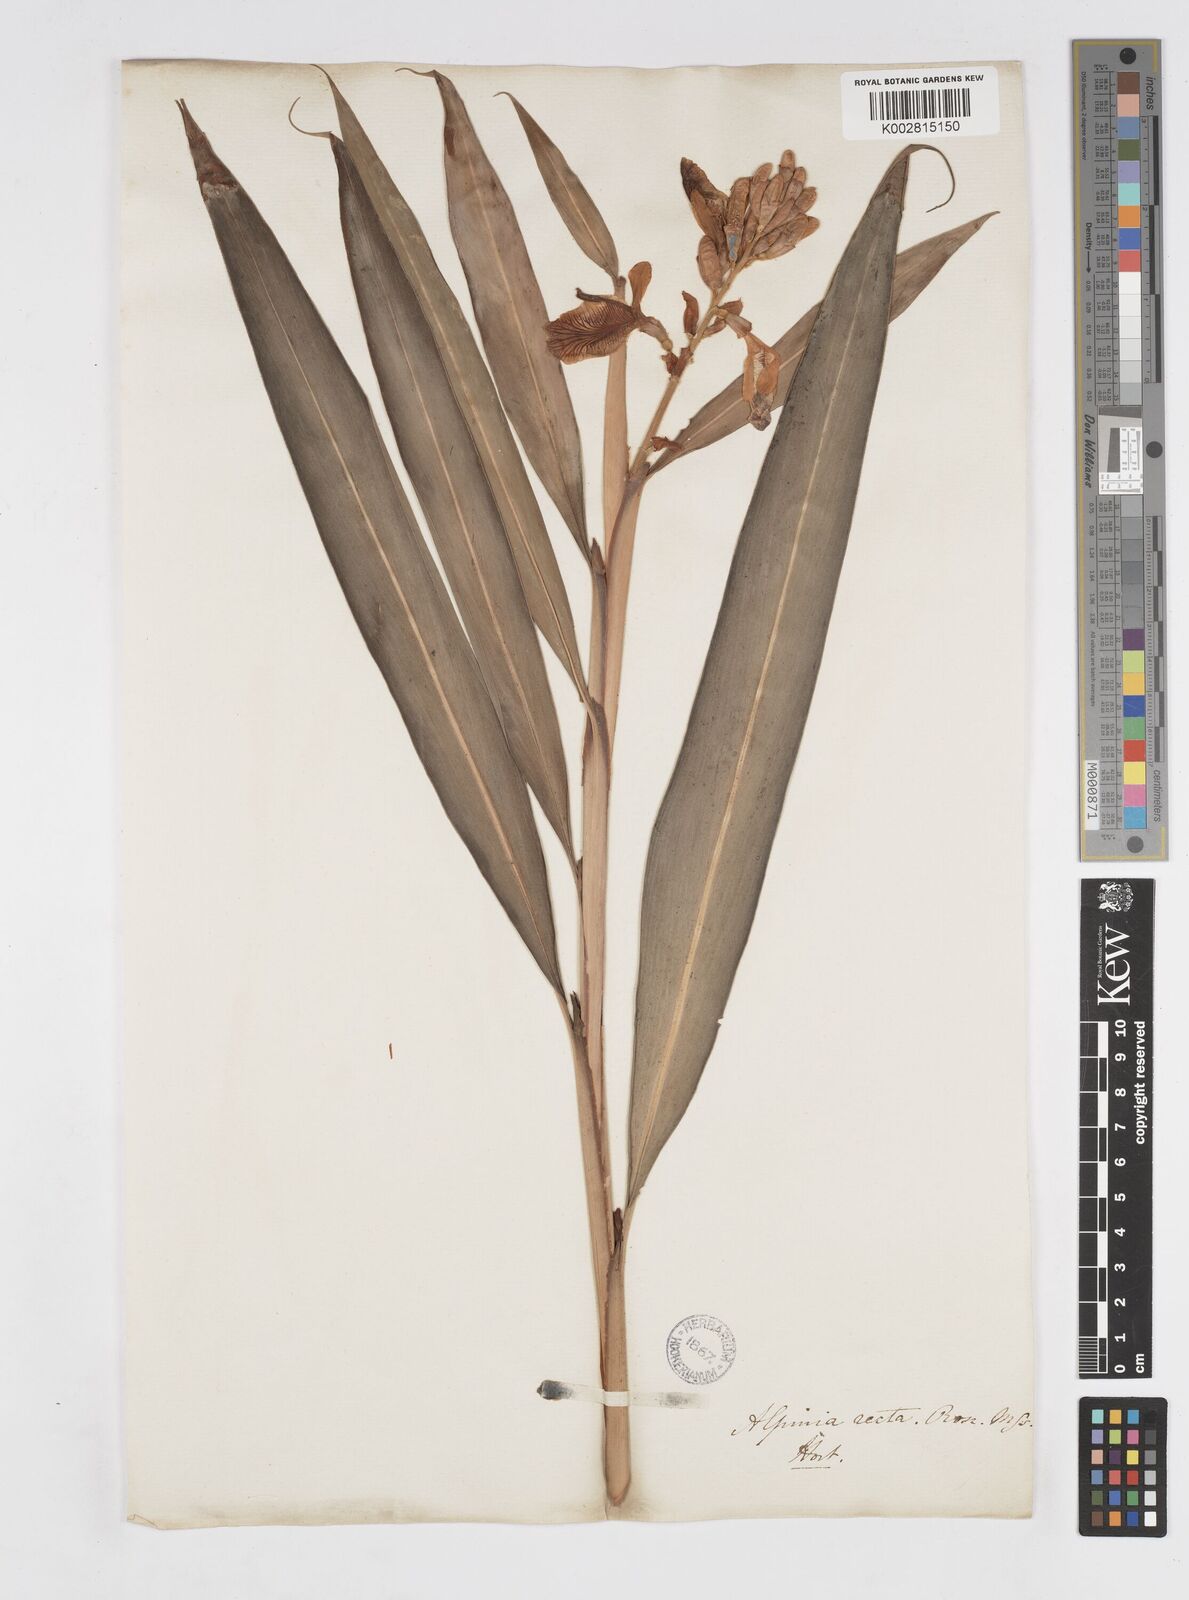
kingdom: Plantae
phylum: Tracheophyta
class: Liliopsida
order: Zingiberales
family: Zingiberaceae
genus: Alpinia
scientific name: Alpinia
